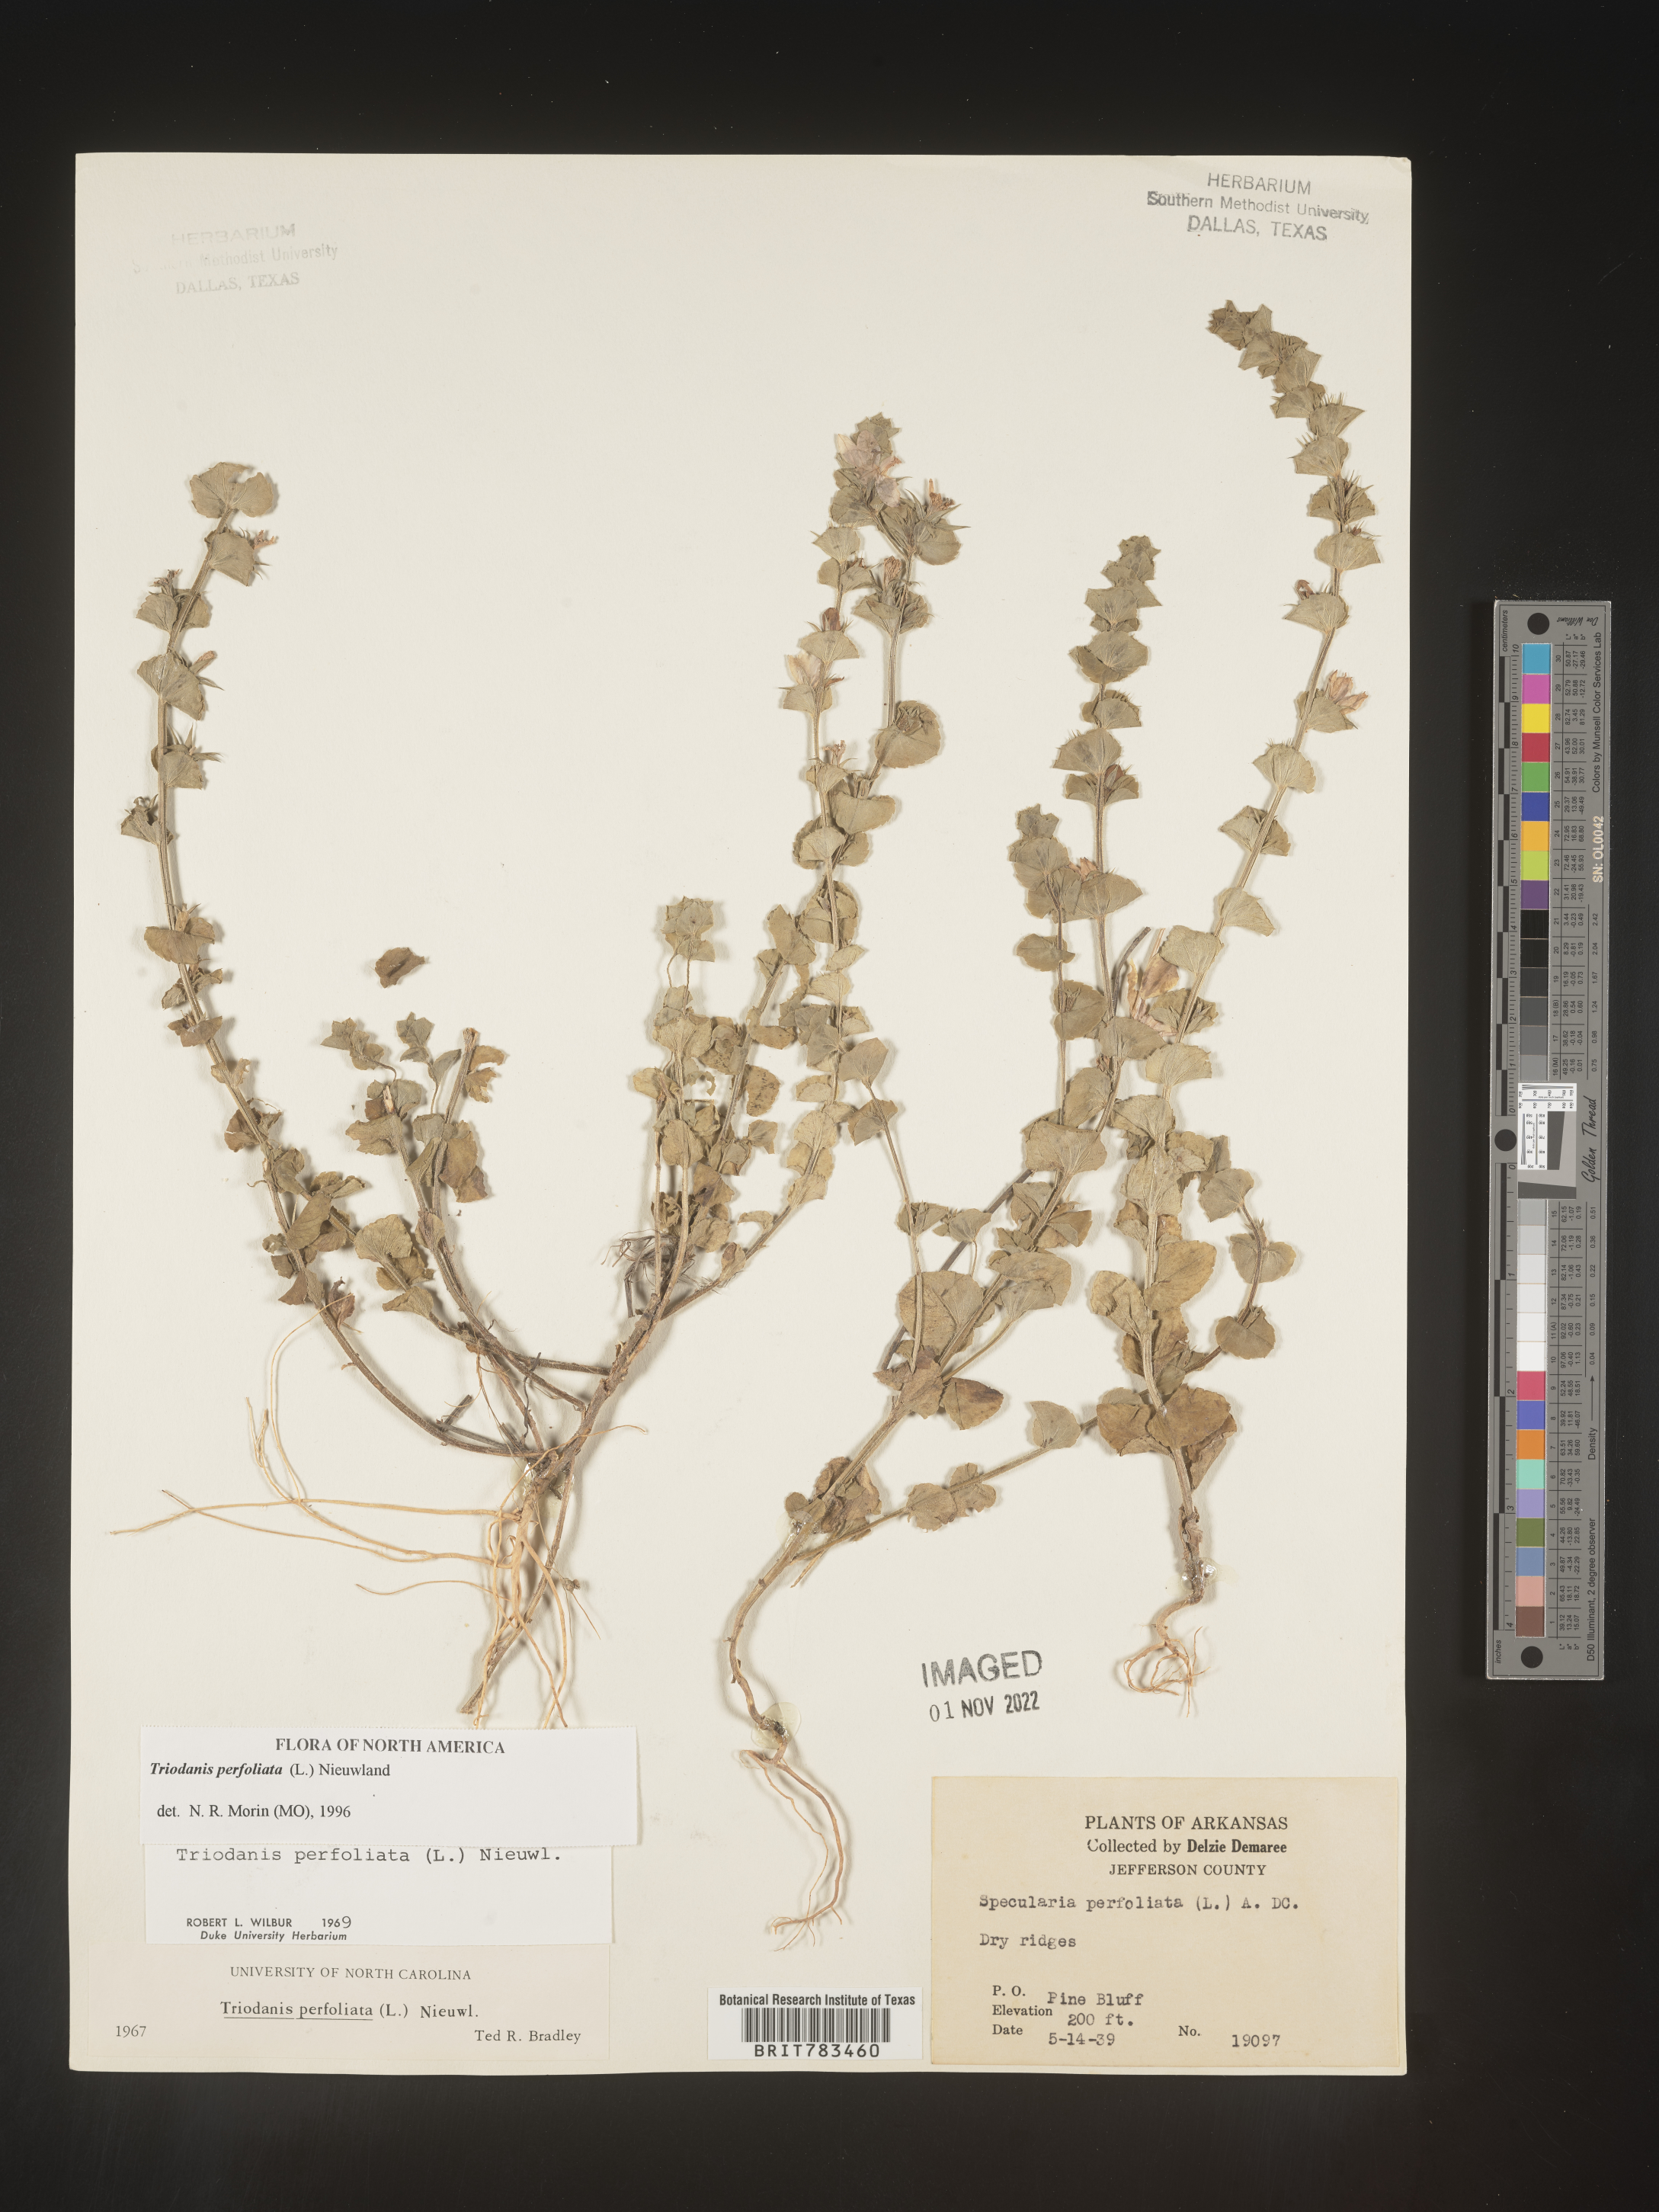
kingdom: Plantae
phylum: Tracheophyta
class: Magnoliopsida
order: Asterales
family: Campanulaceae
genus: Triodanis
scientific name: Triodanis perfoliata
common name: Clasping venus' looking-glass
